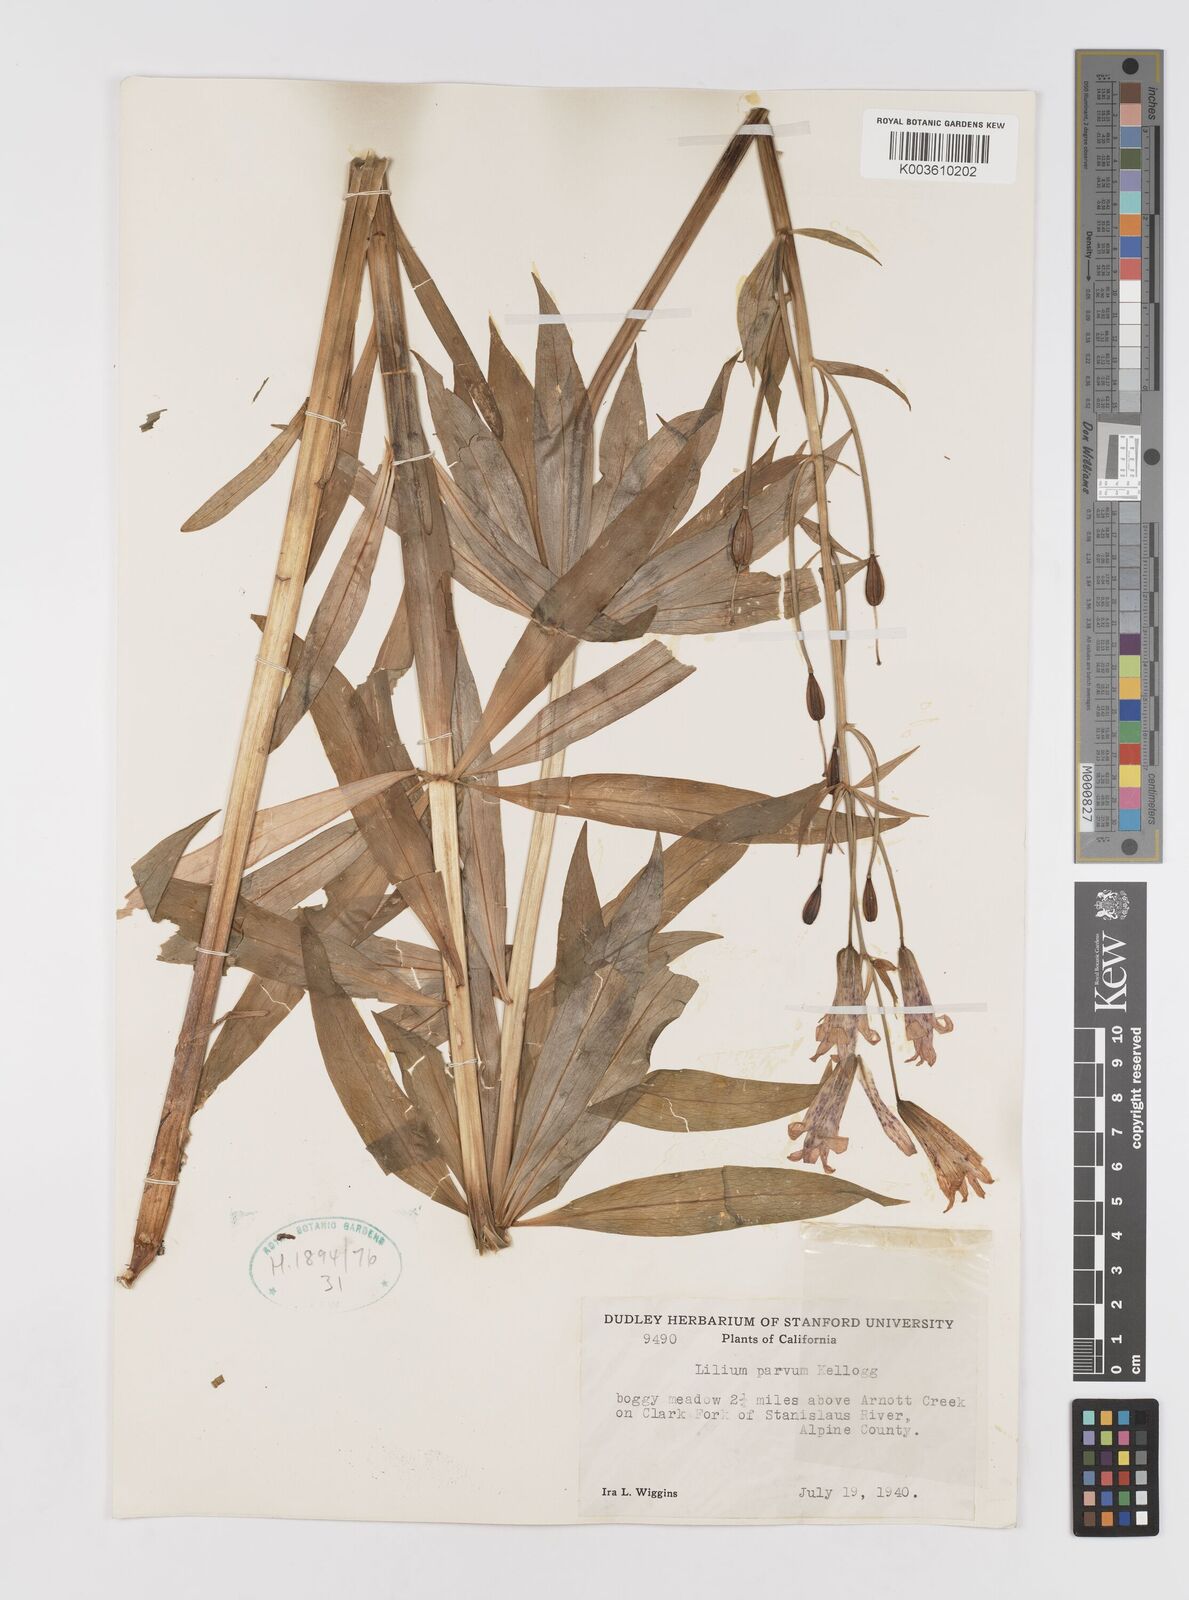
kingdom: Plantae
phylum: Tracheophyta
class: Liliopsida
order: Liliales
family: Liliaceae
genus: Lilium
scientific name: Lilium parvum
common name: Alpine lily
